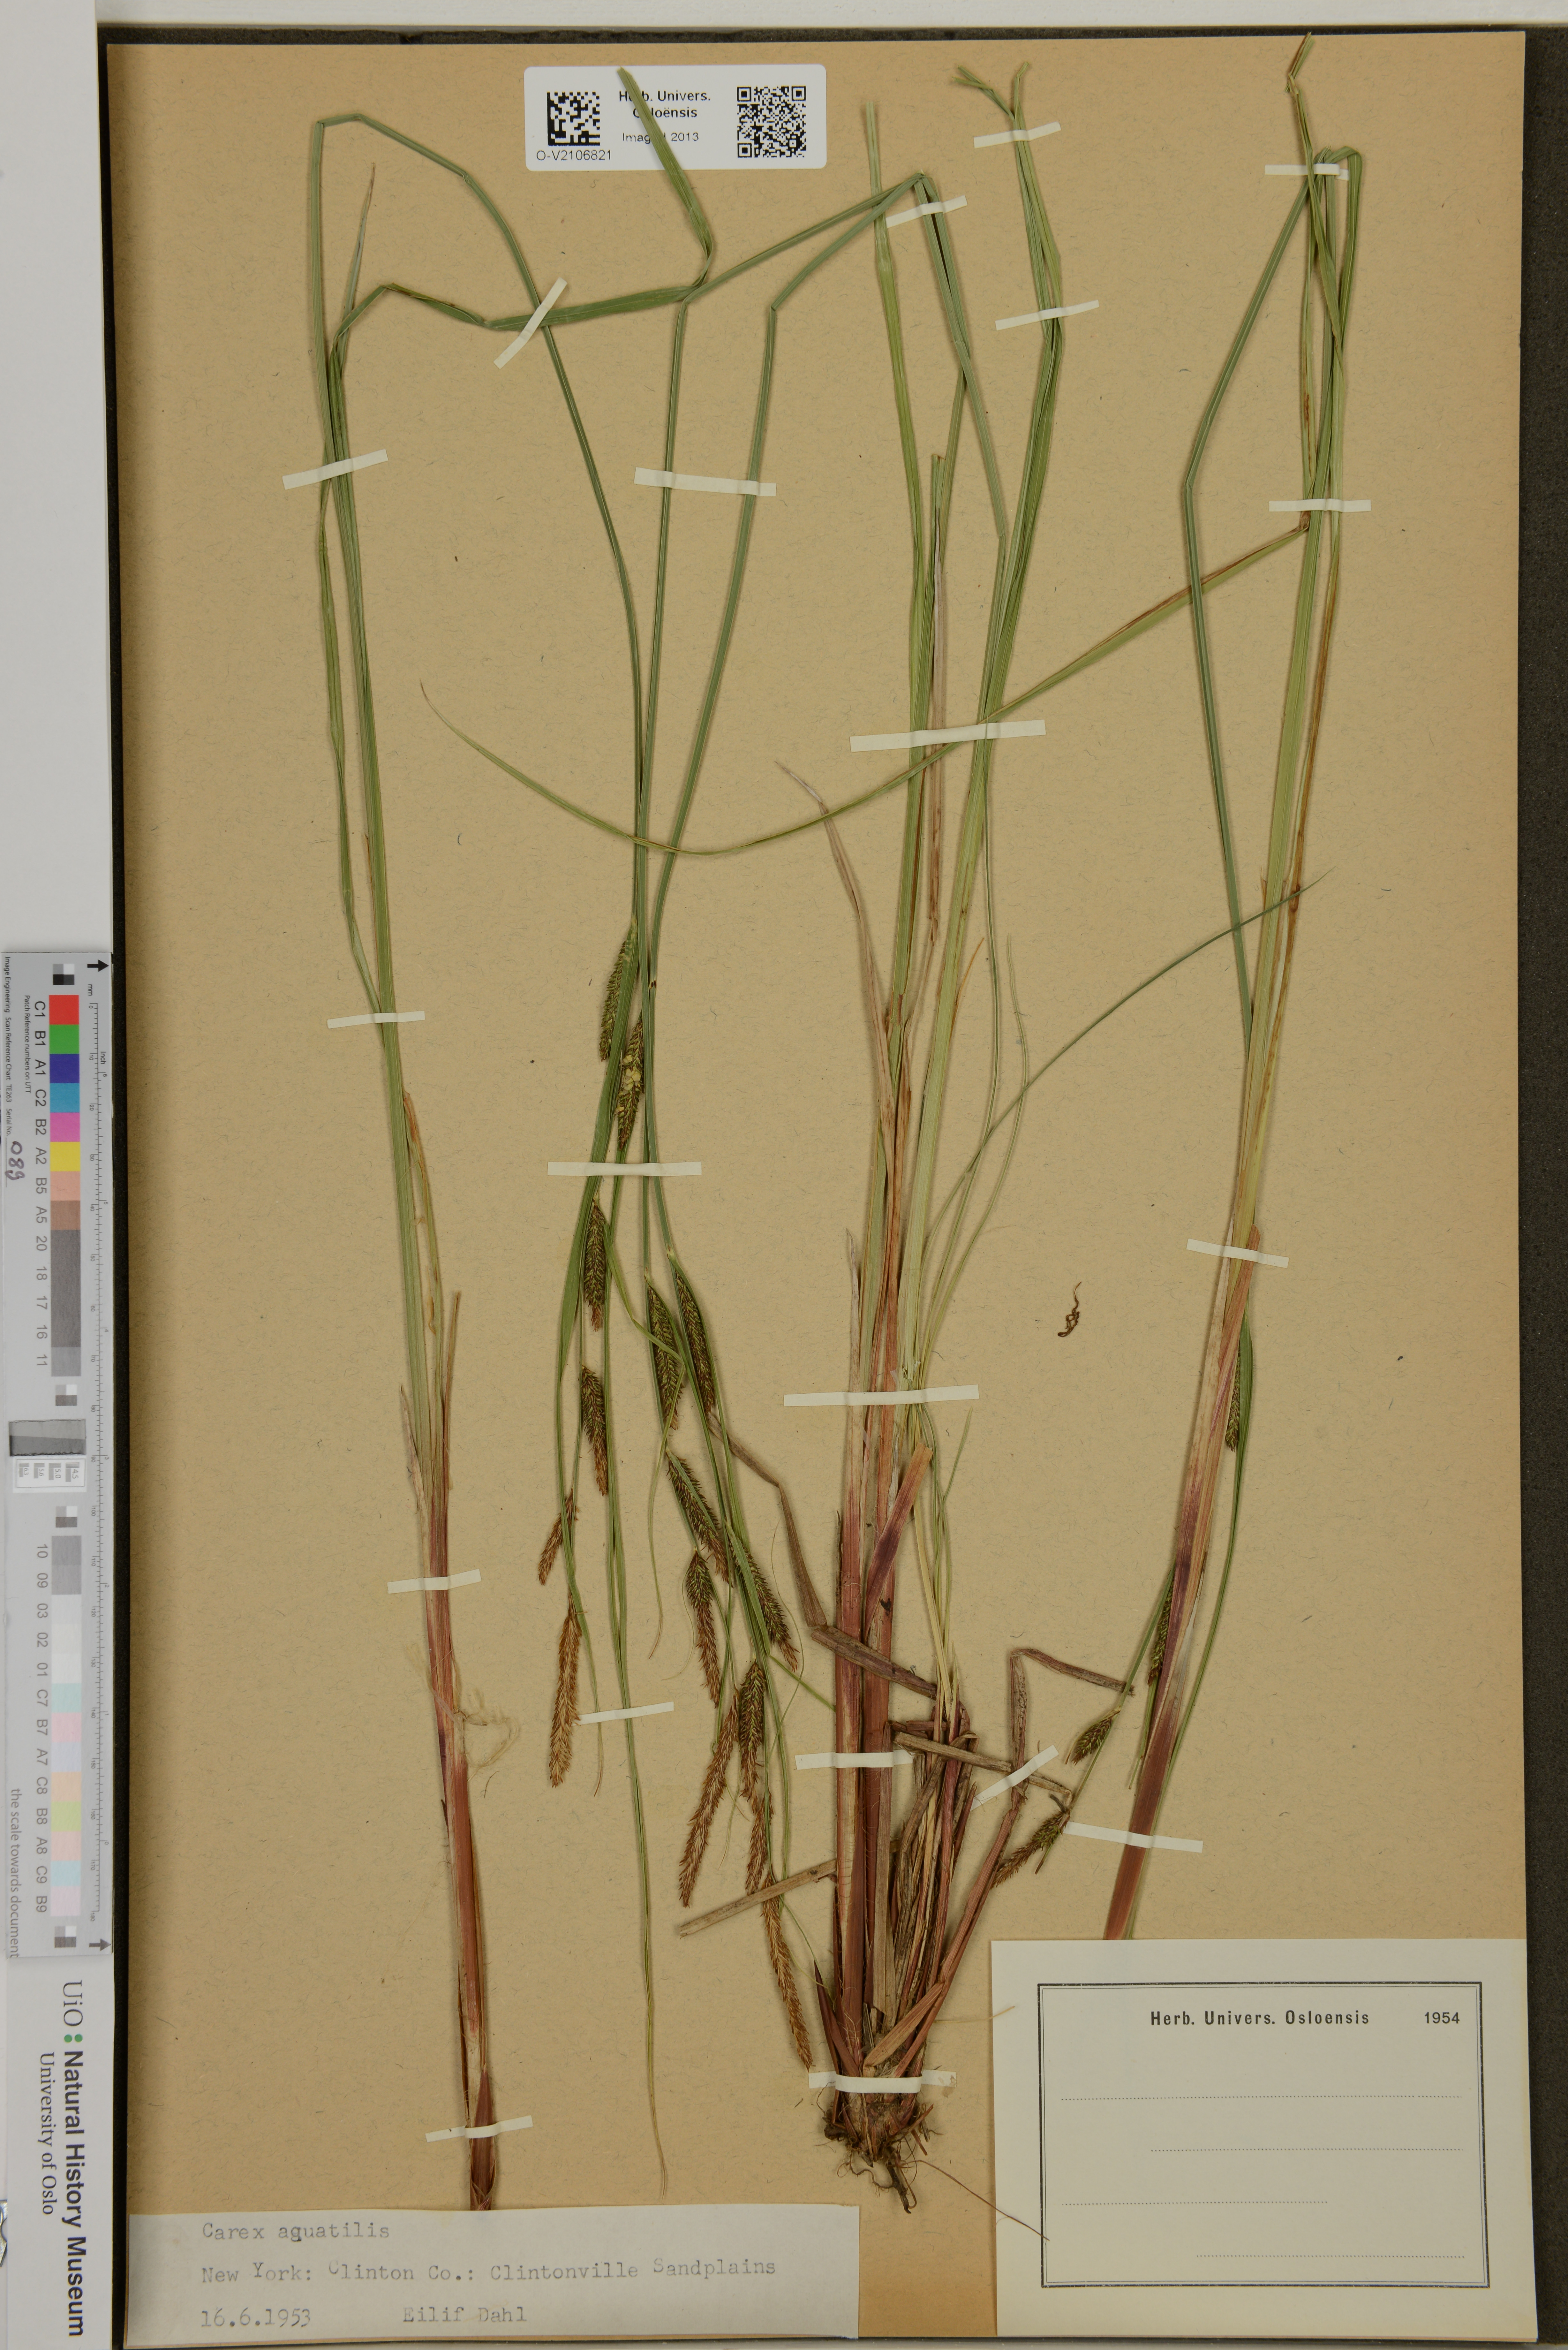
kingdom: Plantae
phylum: Tracheophyta
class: Liliopsida
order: Poales
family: Cyperaceae
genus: Carex
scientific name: Carex aquatilis
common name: Water sedge
